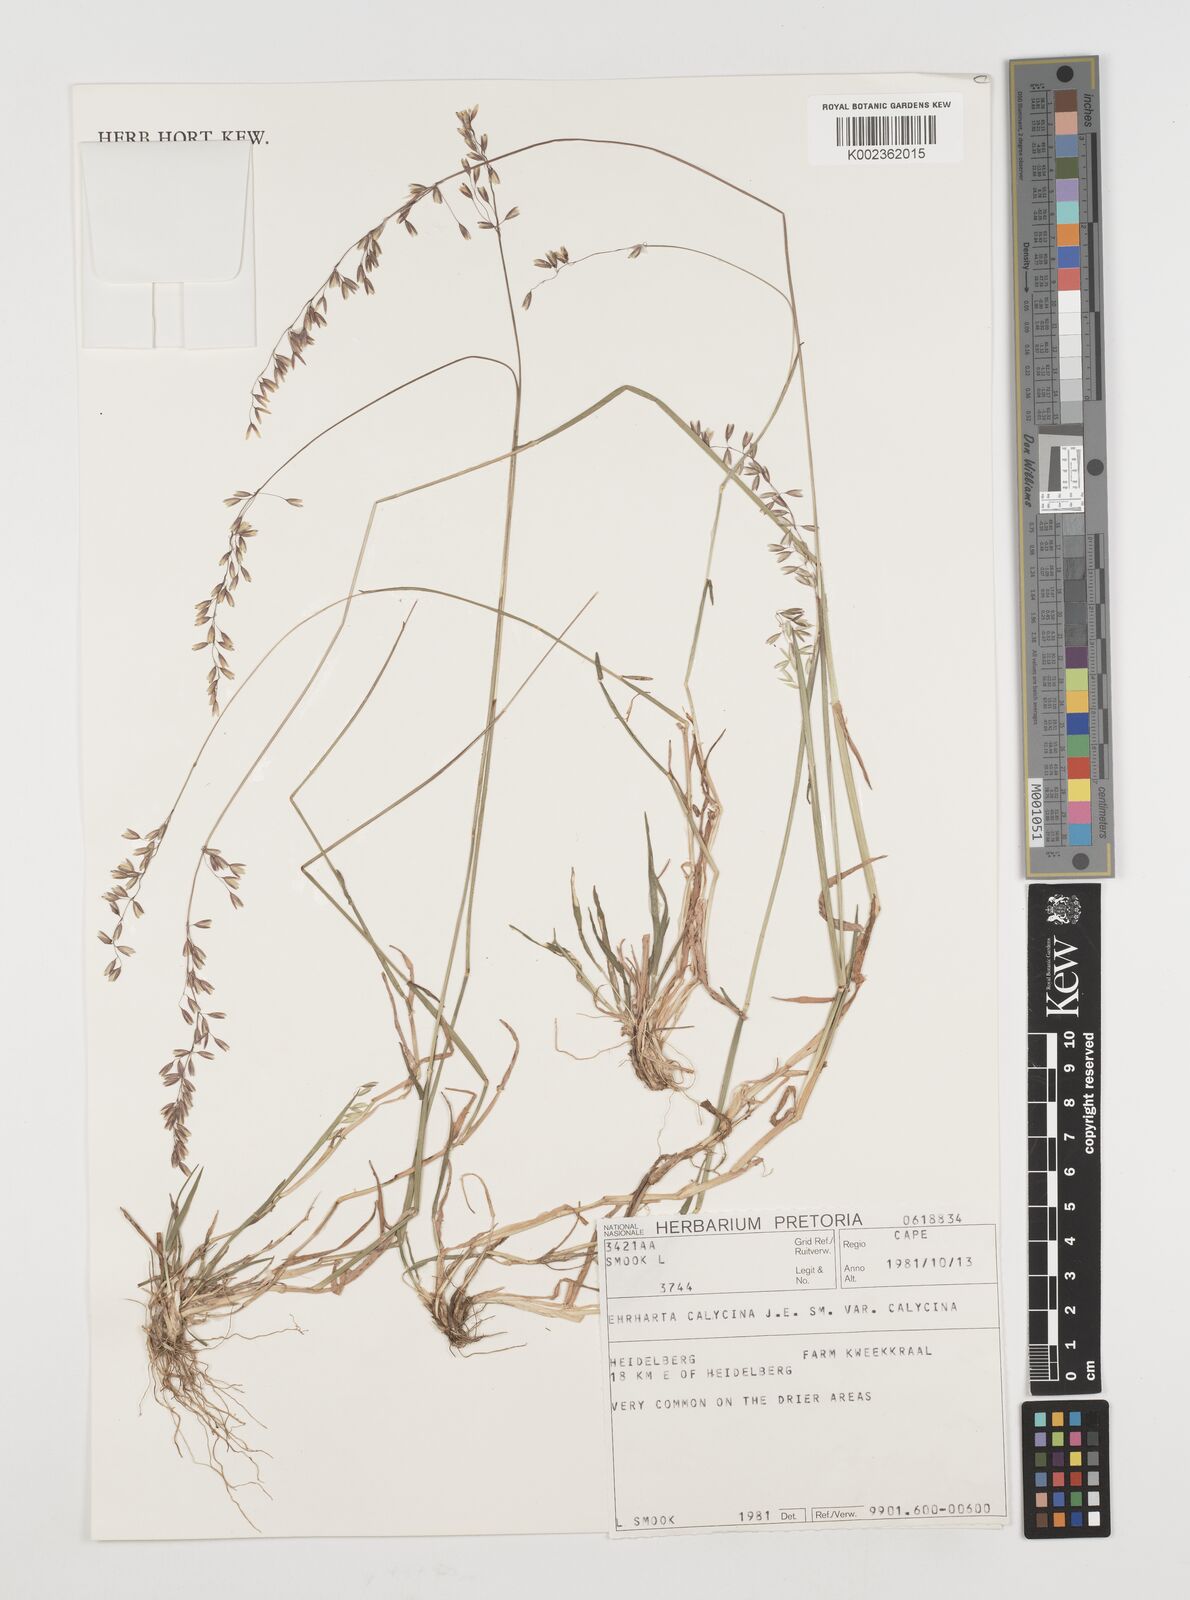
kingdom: Plantae
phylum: Tracheophyta
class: Liliopsida
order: Poales
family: Poaceae
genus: Ehrharta
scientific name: Ehrharta calycina
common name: Perennial veldtgrass
